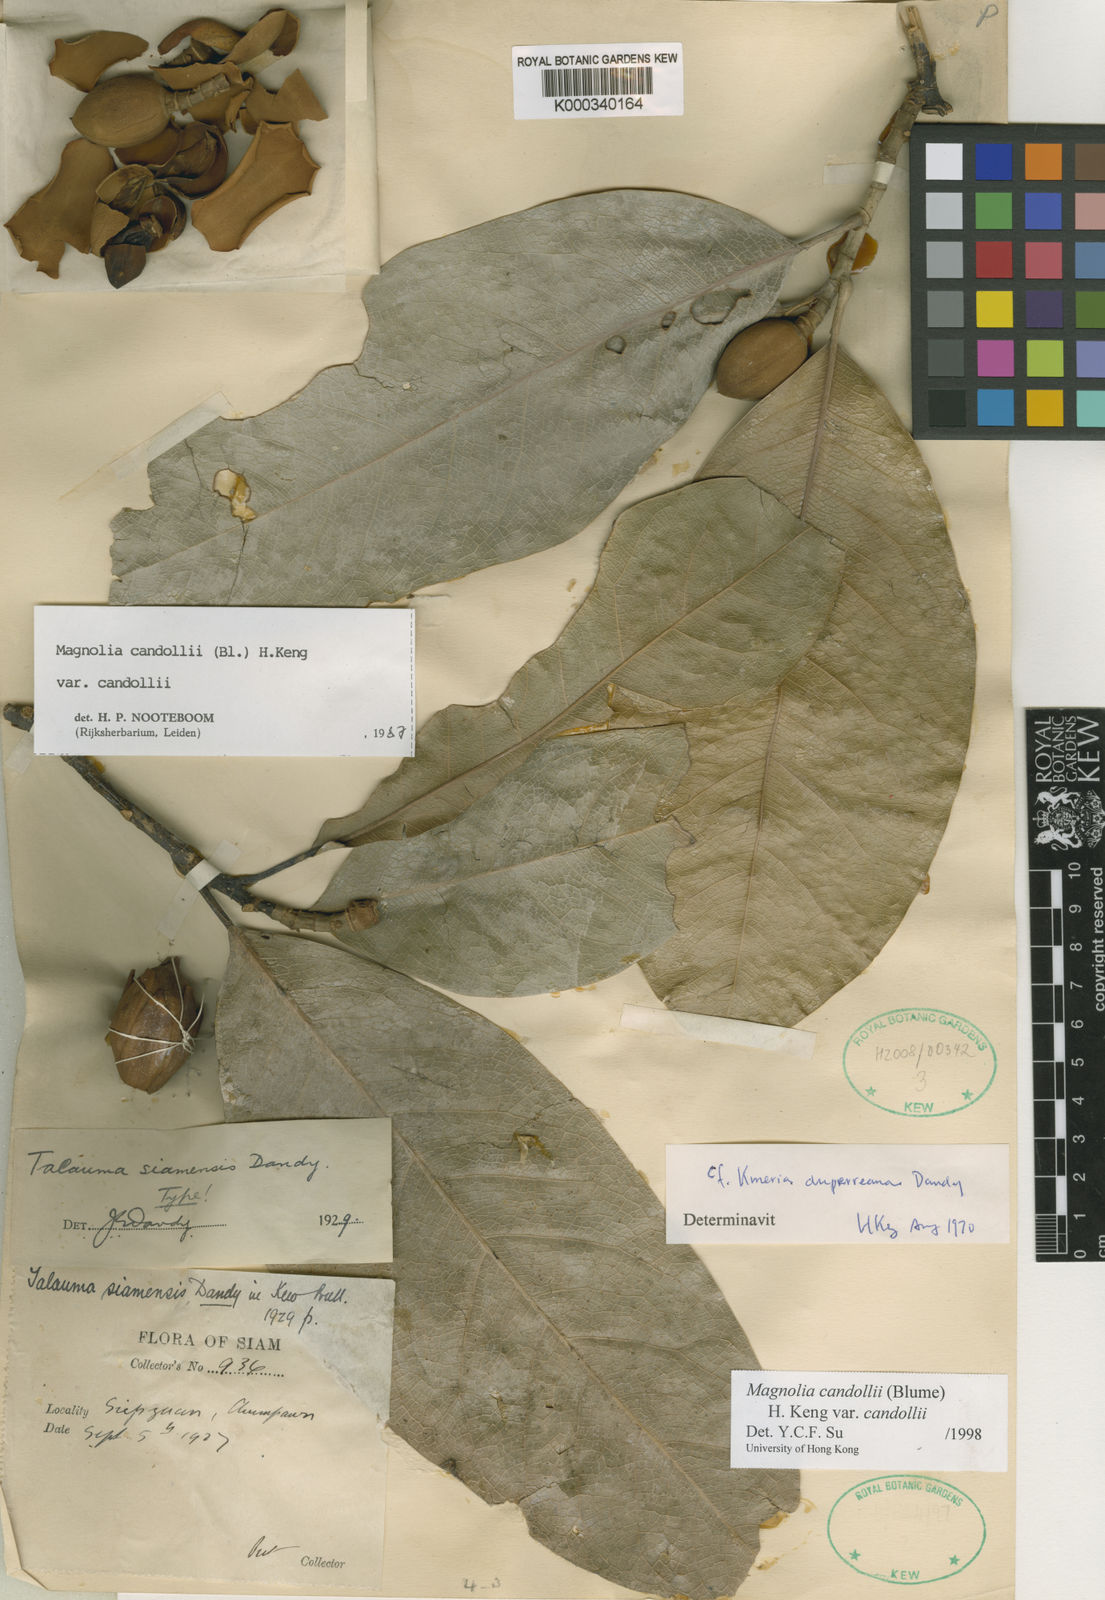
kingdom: Plantae
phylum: Tracheophyta
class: Magnoliopsida
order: Magnoliales
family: Magnoliaceae
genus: Magnolia
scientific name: Magnolia liliifera
